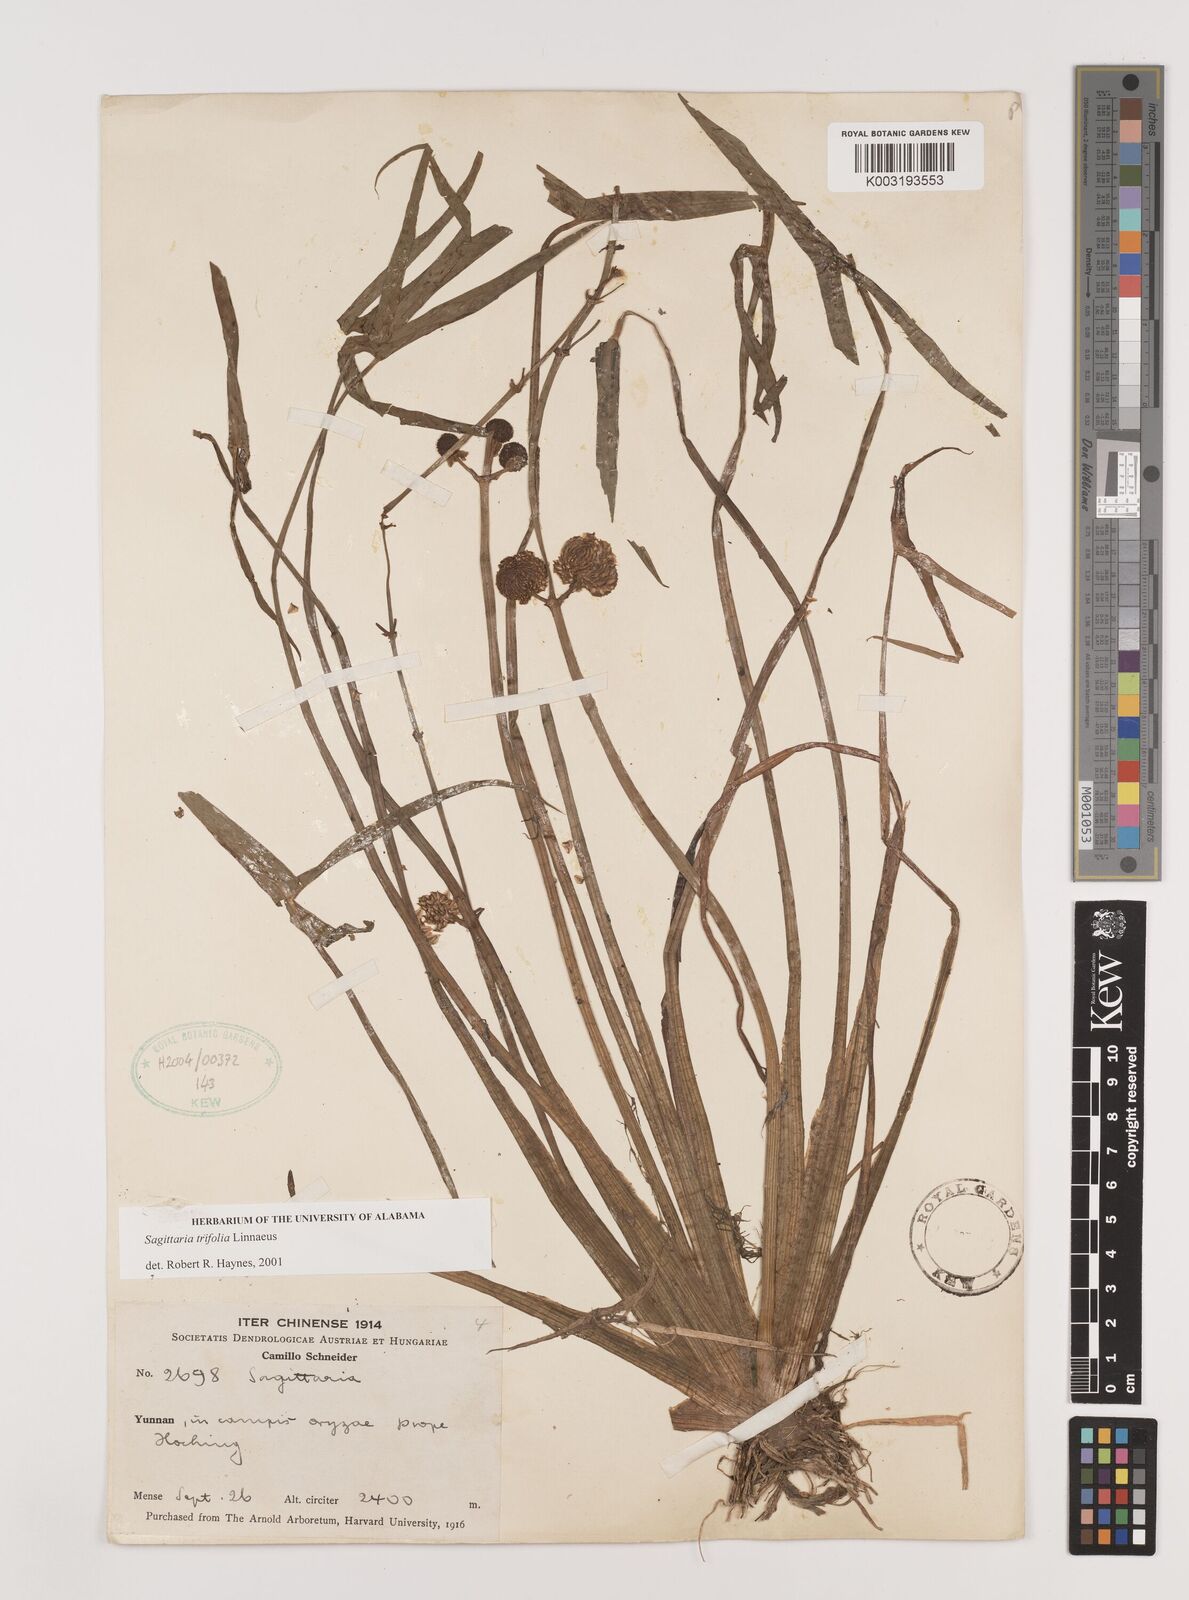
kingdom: Plantae
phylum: Tracheophyta
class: Liliopsida
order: Alismatales
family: Alismataceae
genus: Sagittaria
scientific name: Sagittaria trifolia
